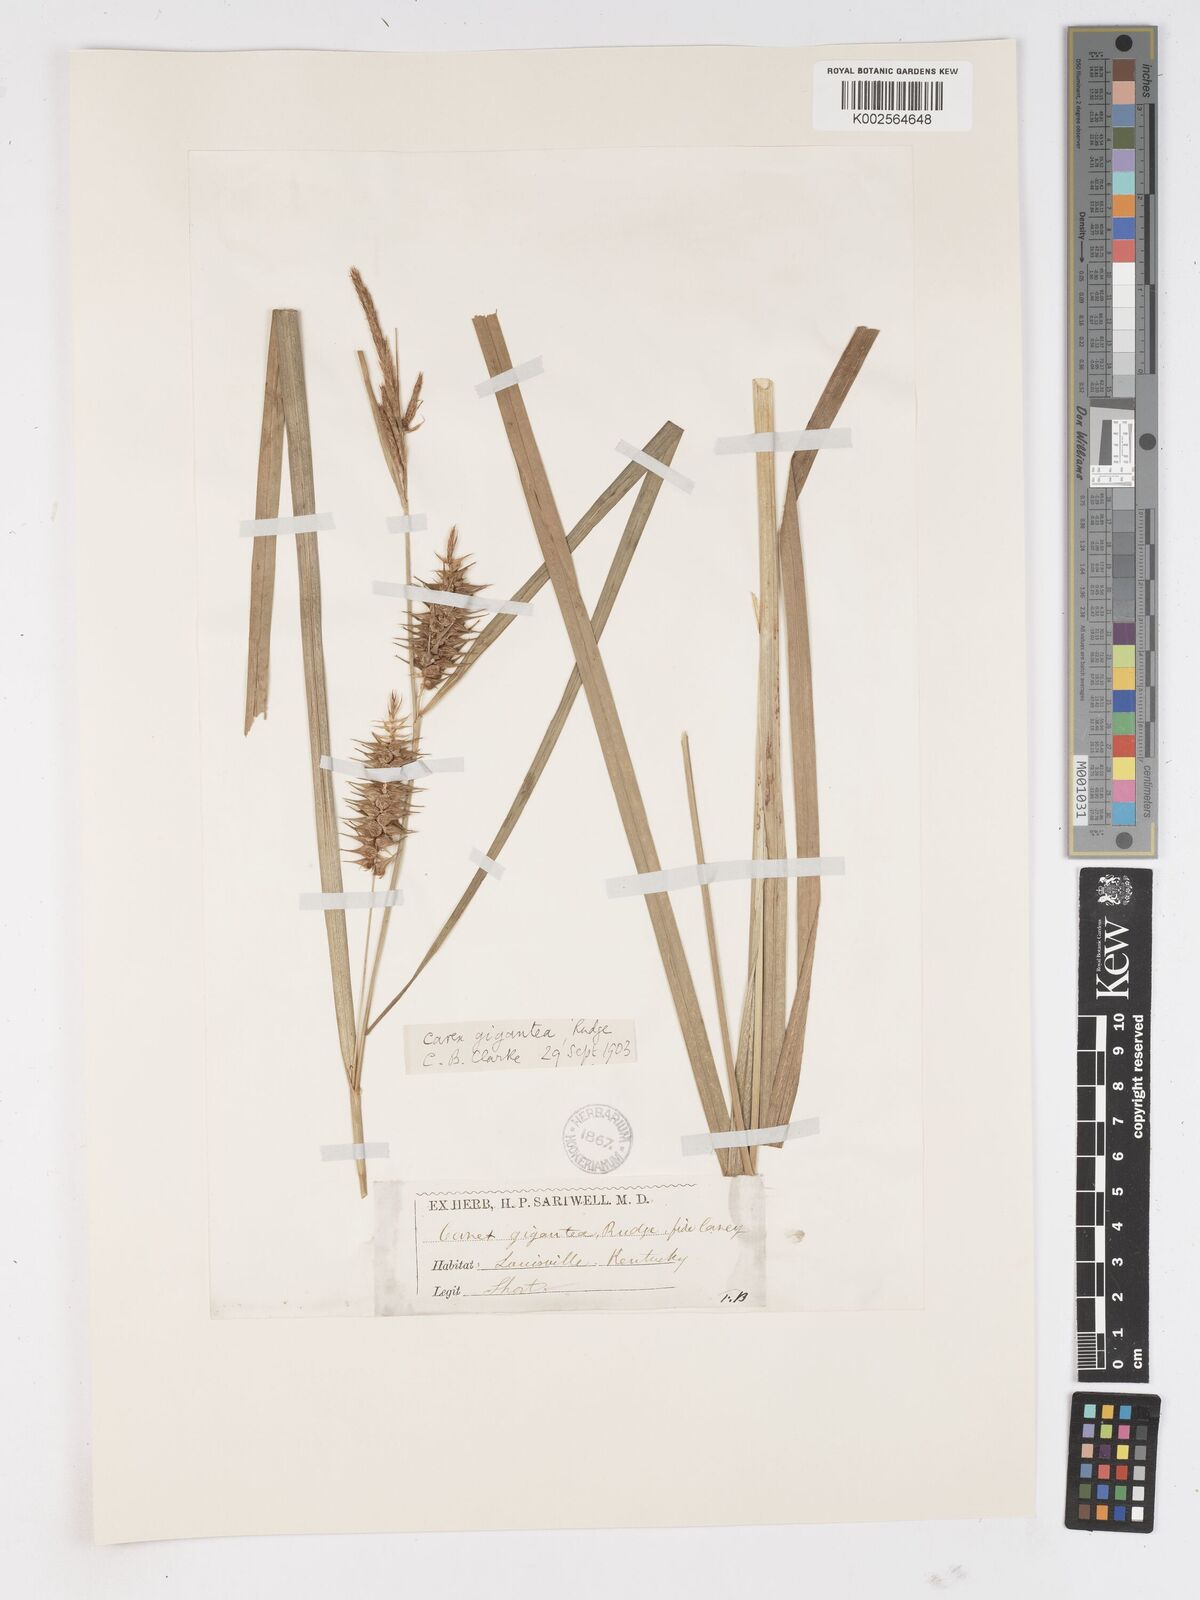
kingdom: Plantae
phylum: Tracheophyta
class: Liliopsida
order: Poales
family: Cyperaceae
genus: Carex
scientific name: Carex gigantea
